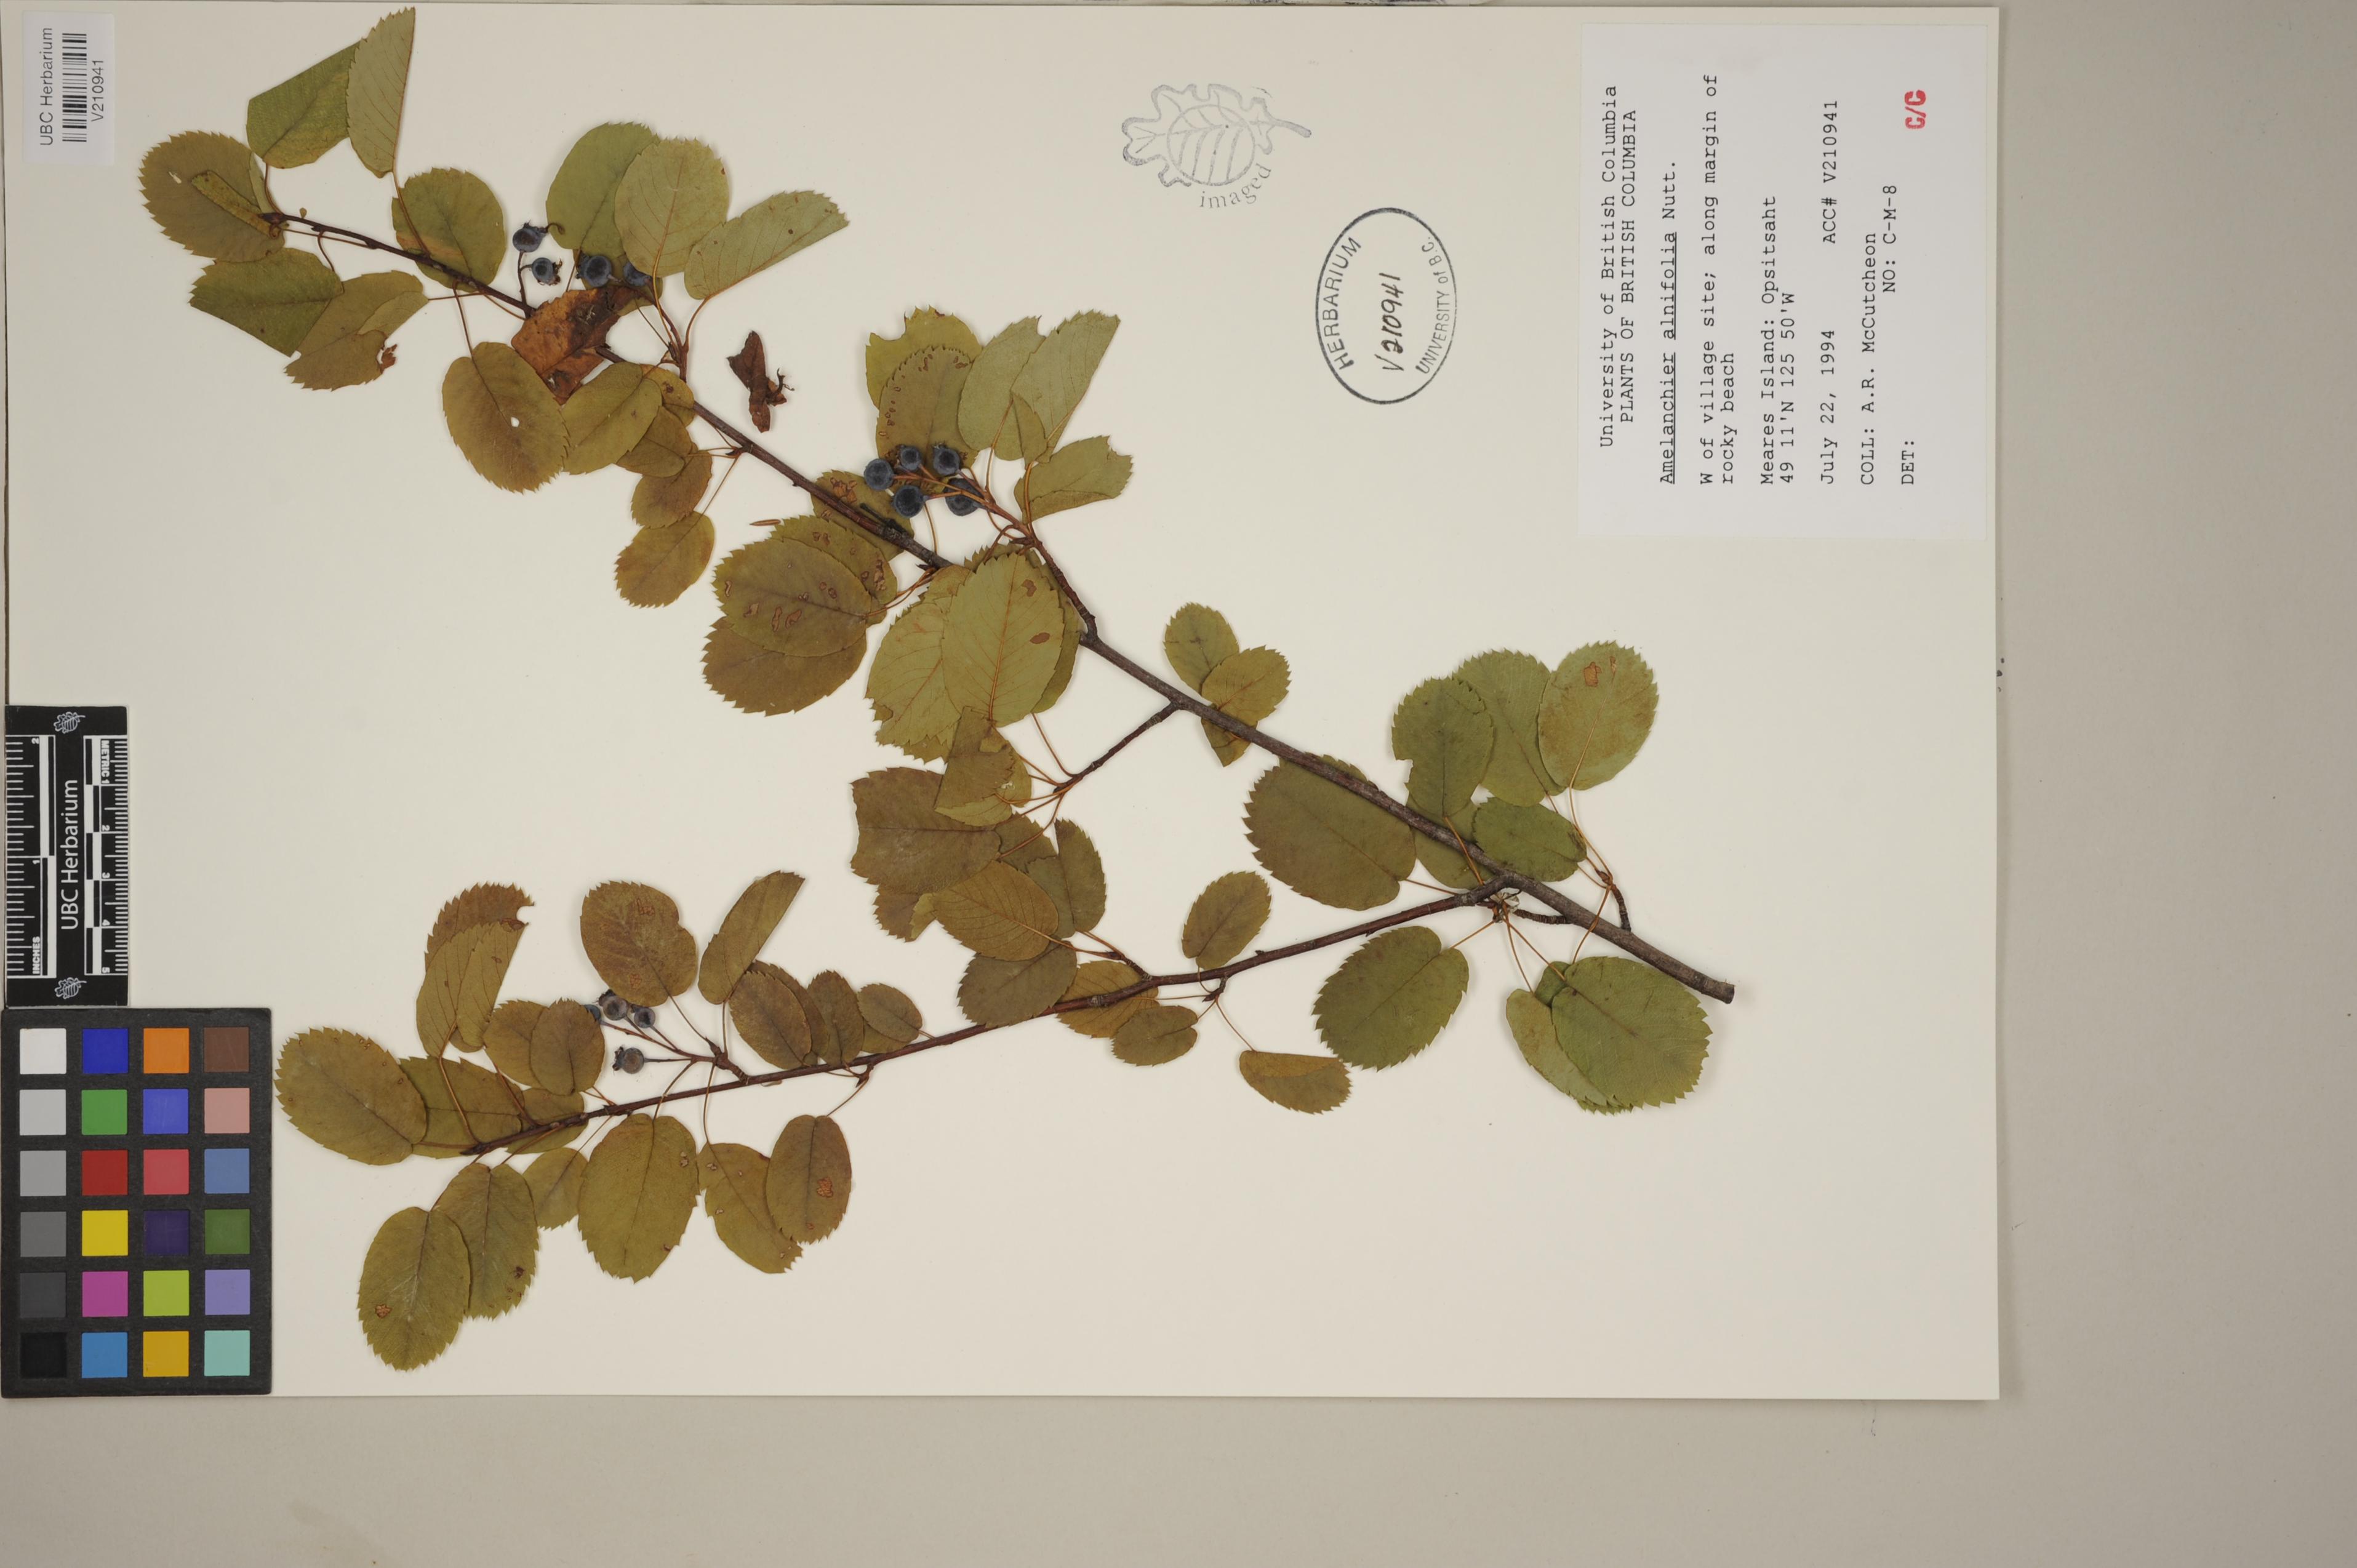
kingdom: Plantae
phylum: Tracheophyta
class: Magnoliopsida
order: Rosales
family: Rosaceae
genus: Amelanchier
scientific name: Amelanchier alnifolia
